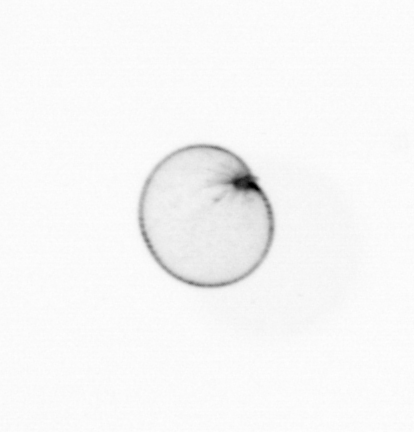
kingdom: Chromista
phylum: Myzozoa
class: Dinophyceae
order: Noctilucales
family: Noctilucaceae
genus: Noctiluca
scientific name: Noctiluca scintillans
